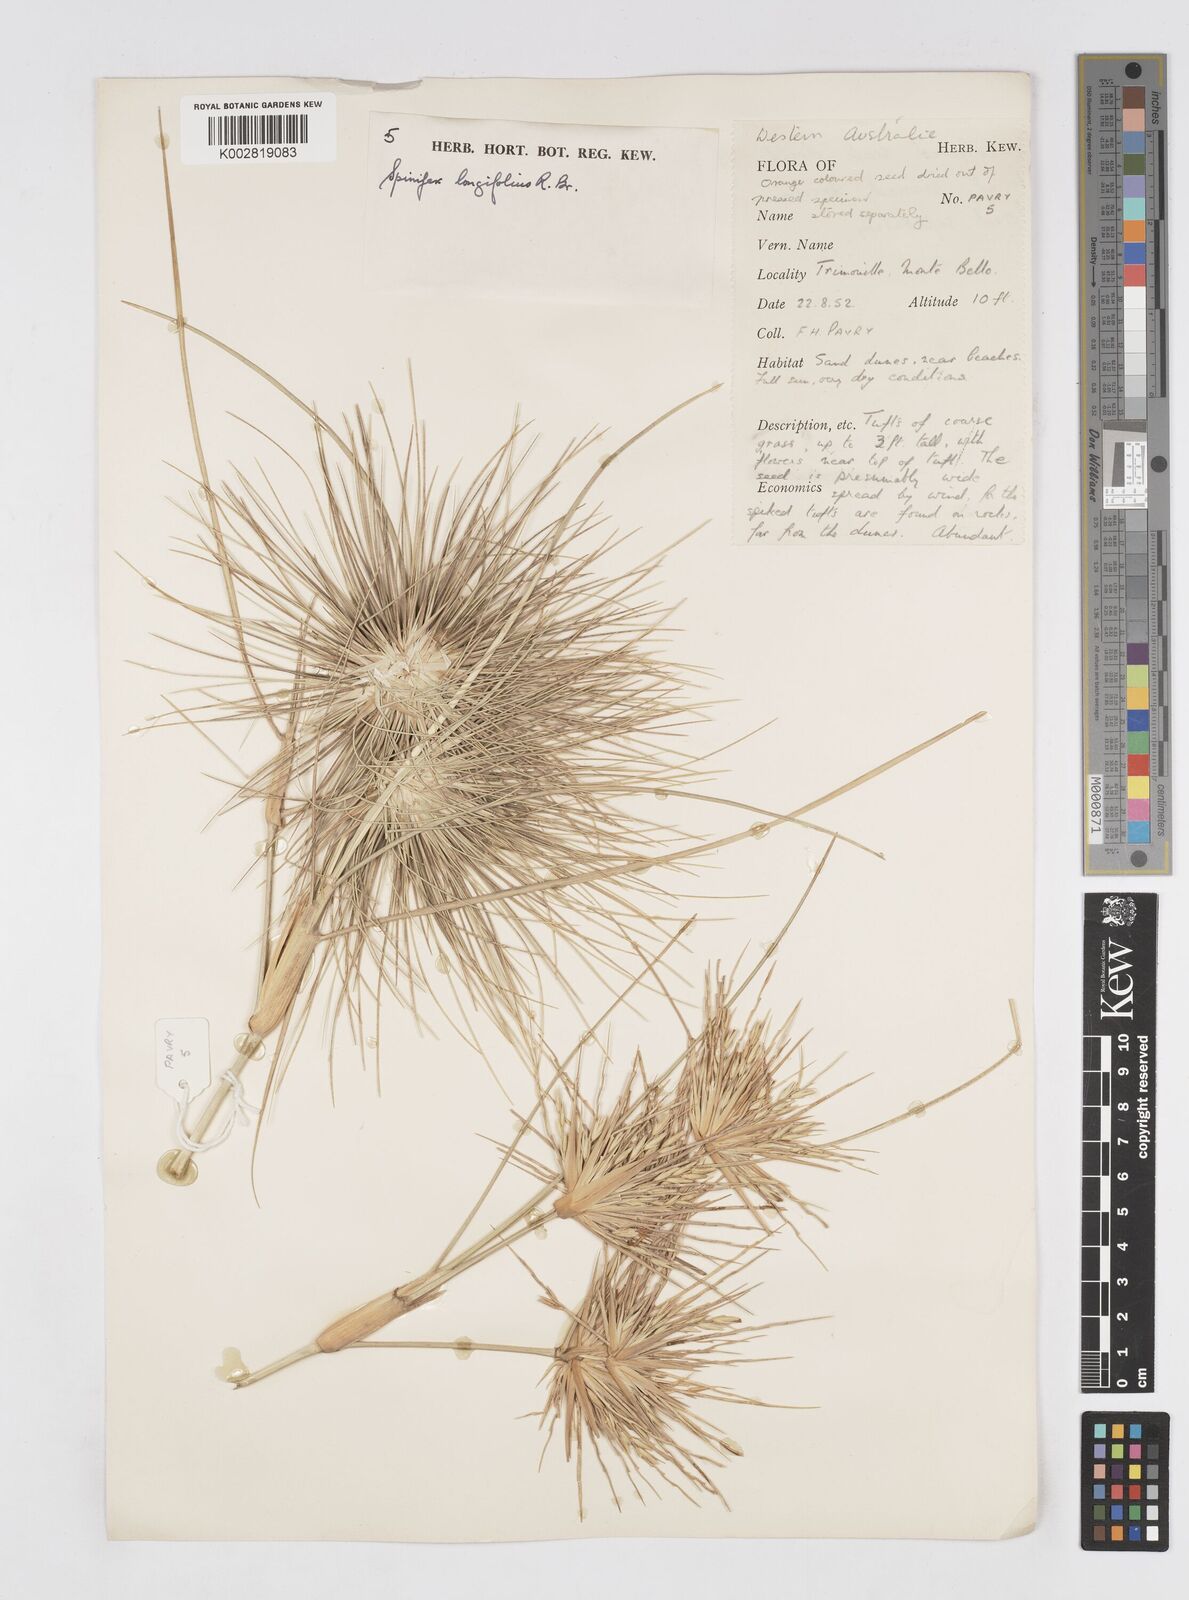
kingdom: Plantae
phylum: Tracheophyta
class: Liliopsida
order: Poales
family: Poaceae
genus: Spinifex
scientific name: Spinifex longifolius
